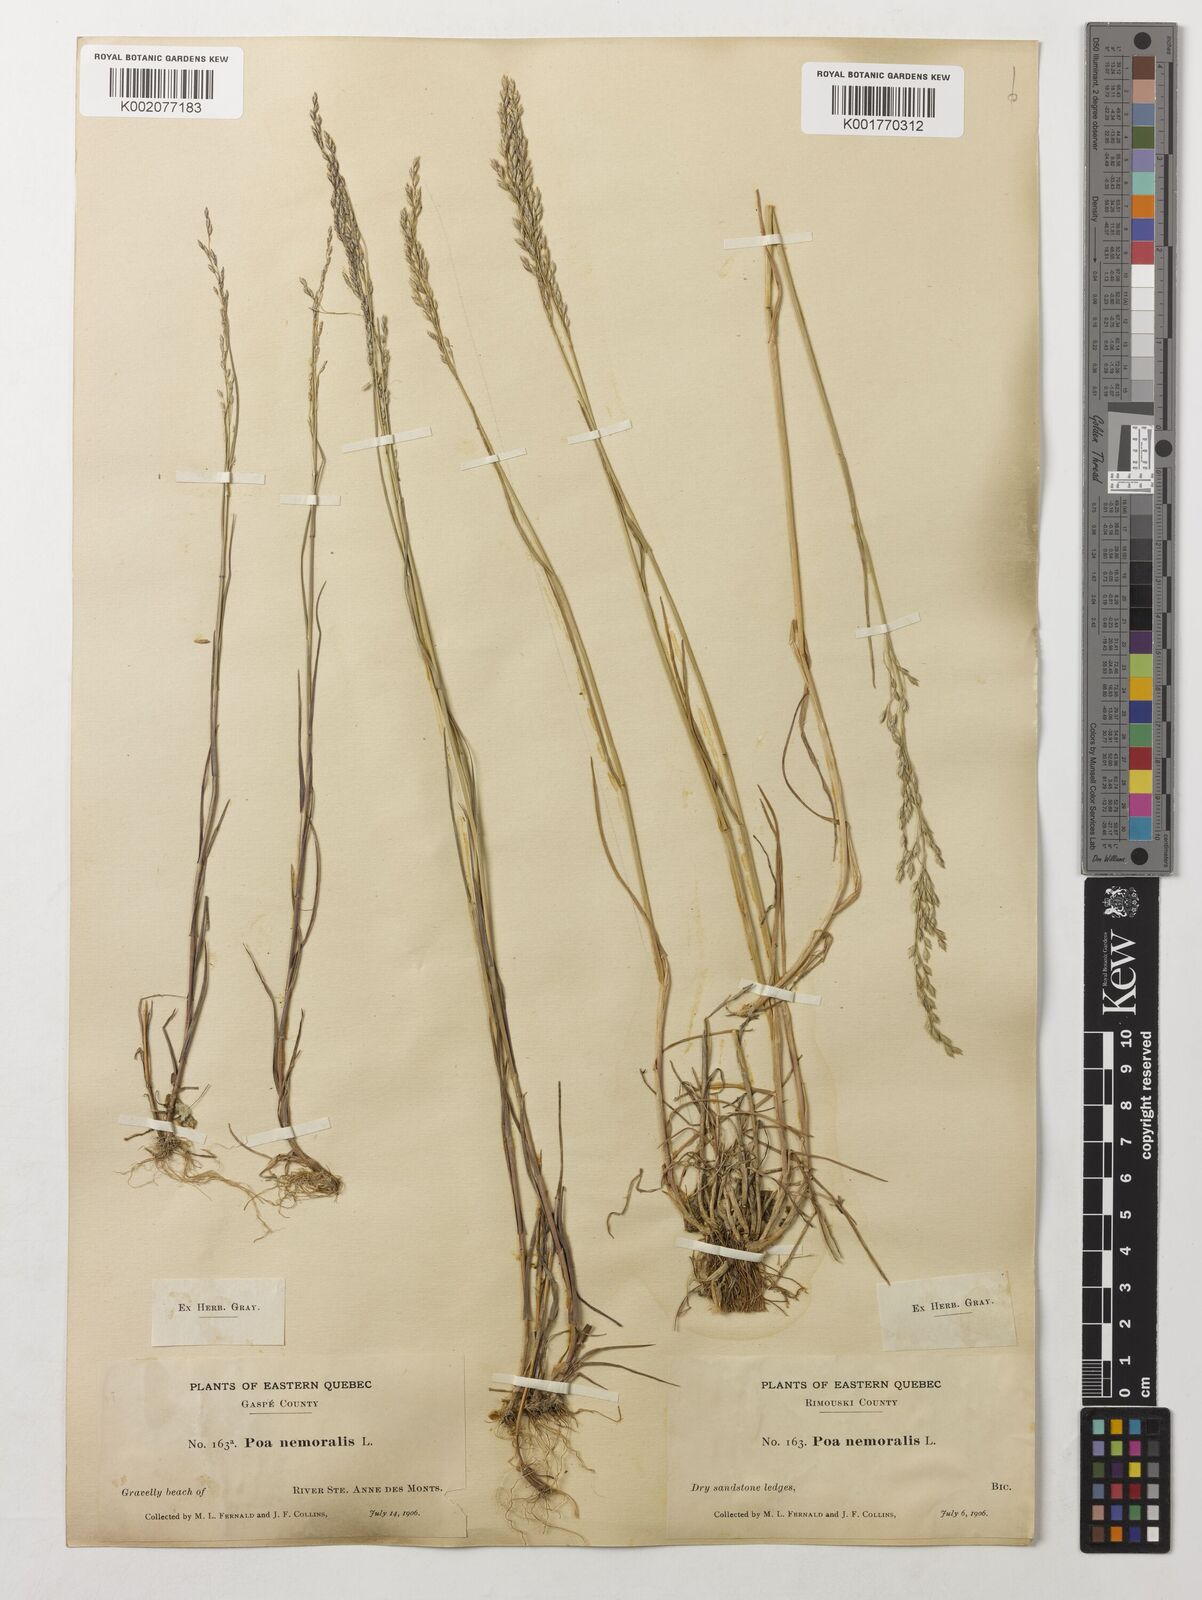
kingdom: Plantae
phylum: Tracheophyta
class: Liliopsida
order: Poales
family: Poaceae
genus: Poa
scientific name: Poa nemoralis
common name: Wood bluegrass
